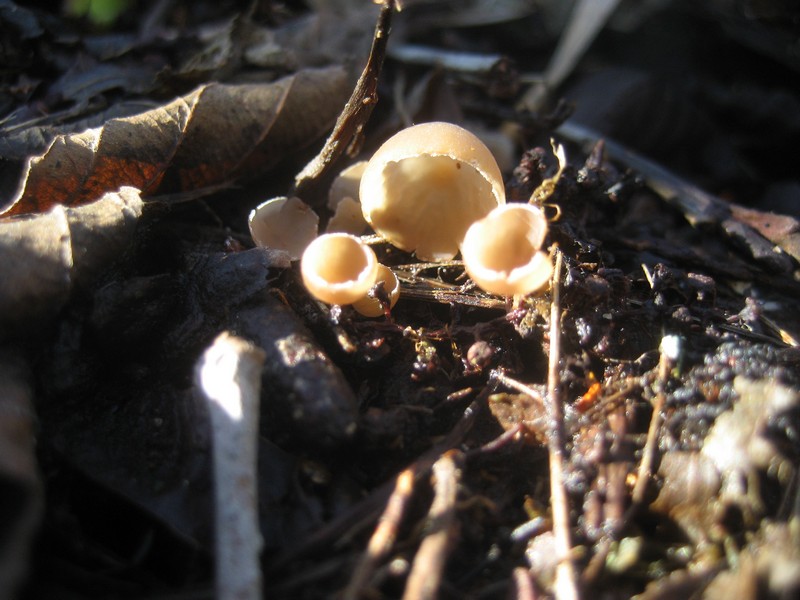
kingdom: Fungi
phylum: Ascomycota
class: Leotiomycetes
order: Helotiales
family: Sclerotiniaceae
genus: Ciboria
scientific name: Ciboria amentacea
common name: ellerakle-knoldskive
